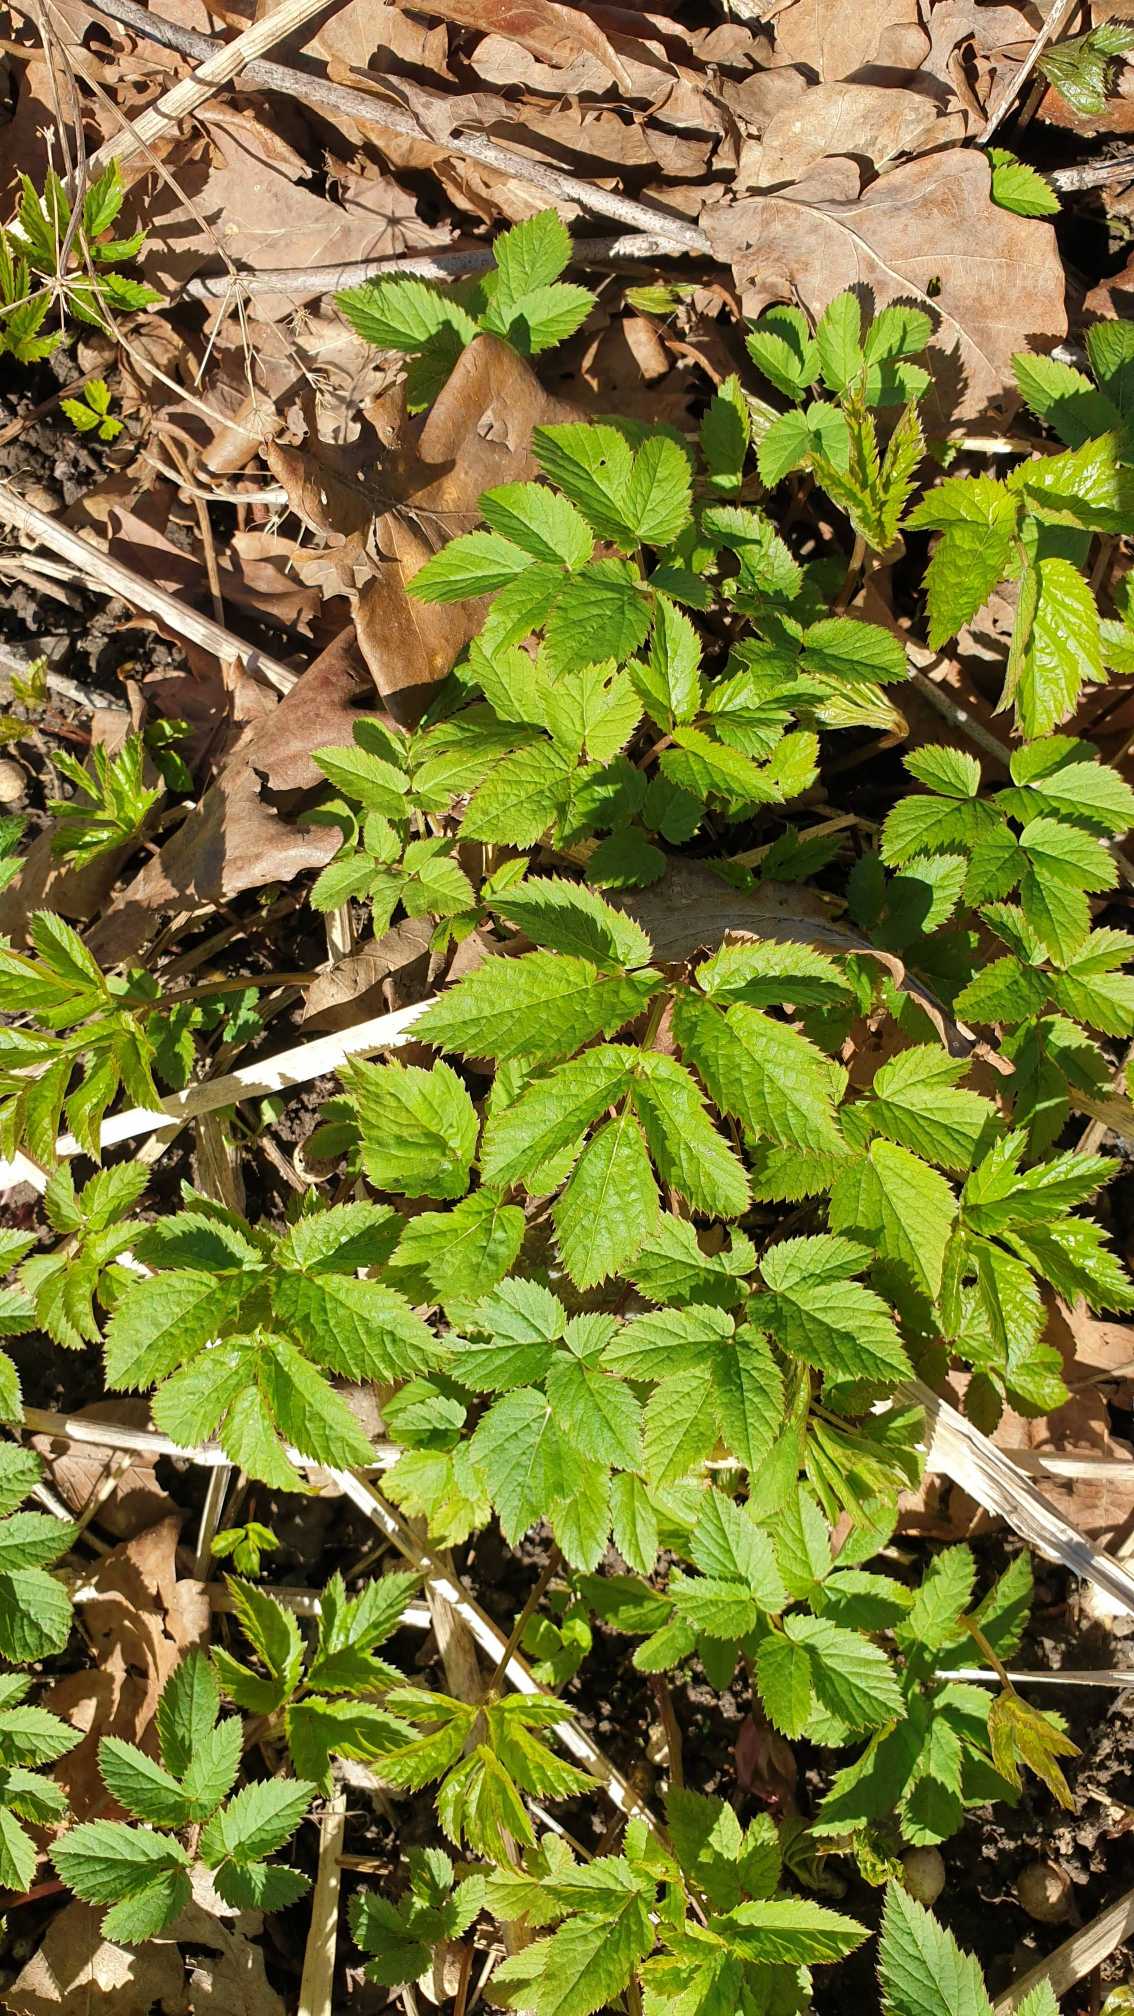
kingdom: Plantae
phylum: Tracheophyta
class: Magnoliopsida
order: Apiales
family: Apiaceae
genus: Aegopodium
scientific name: Aegopodium podagraria
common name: Skvalderkål
